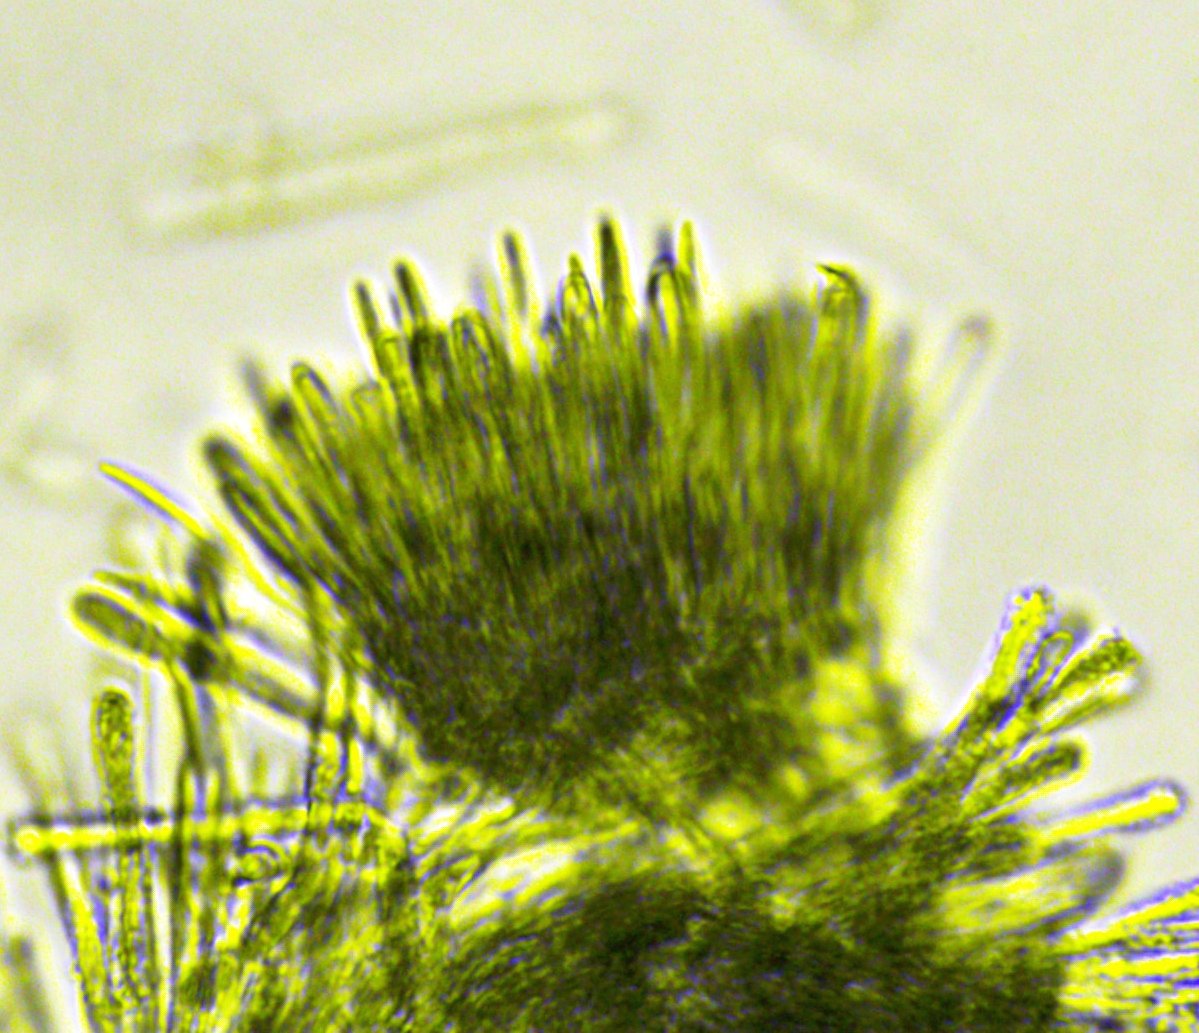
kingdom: Fungi
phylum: Ascomycota
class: Leotiomycetes
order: Helotiales
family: Lachnaceae
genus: Lachnum
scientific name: Lachnum impudicum
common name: vinter-frynseskive
